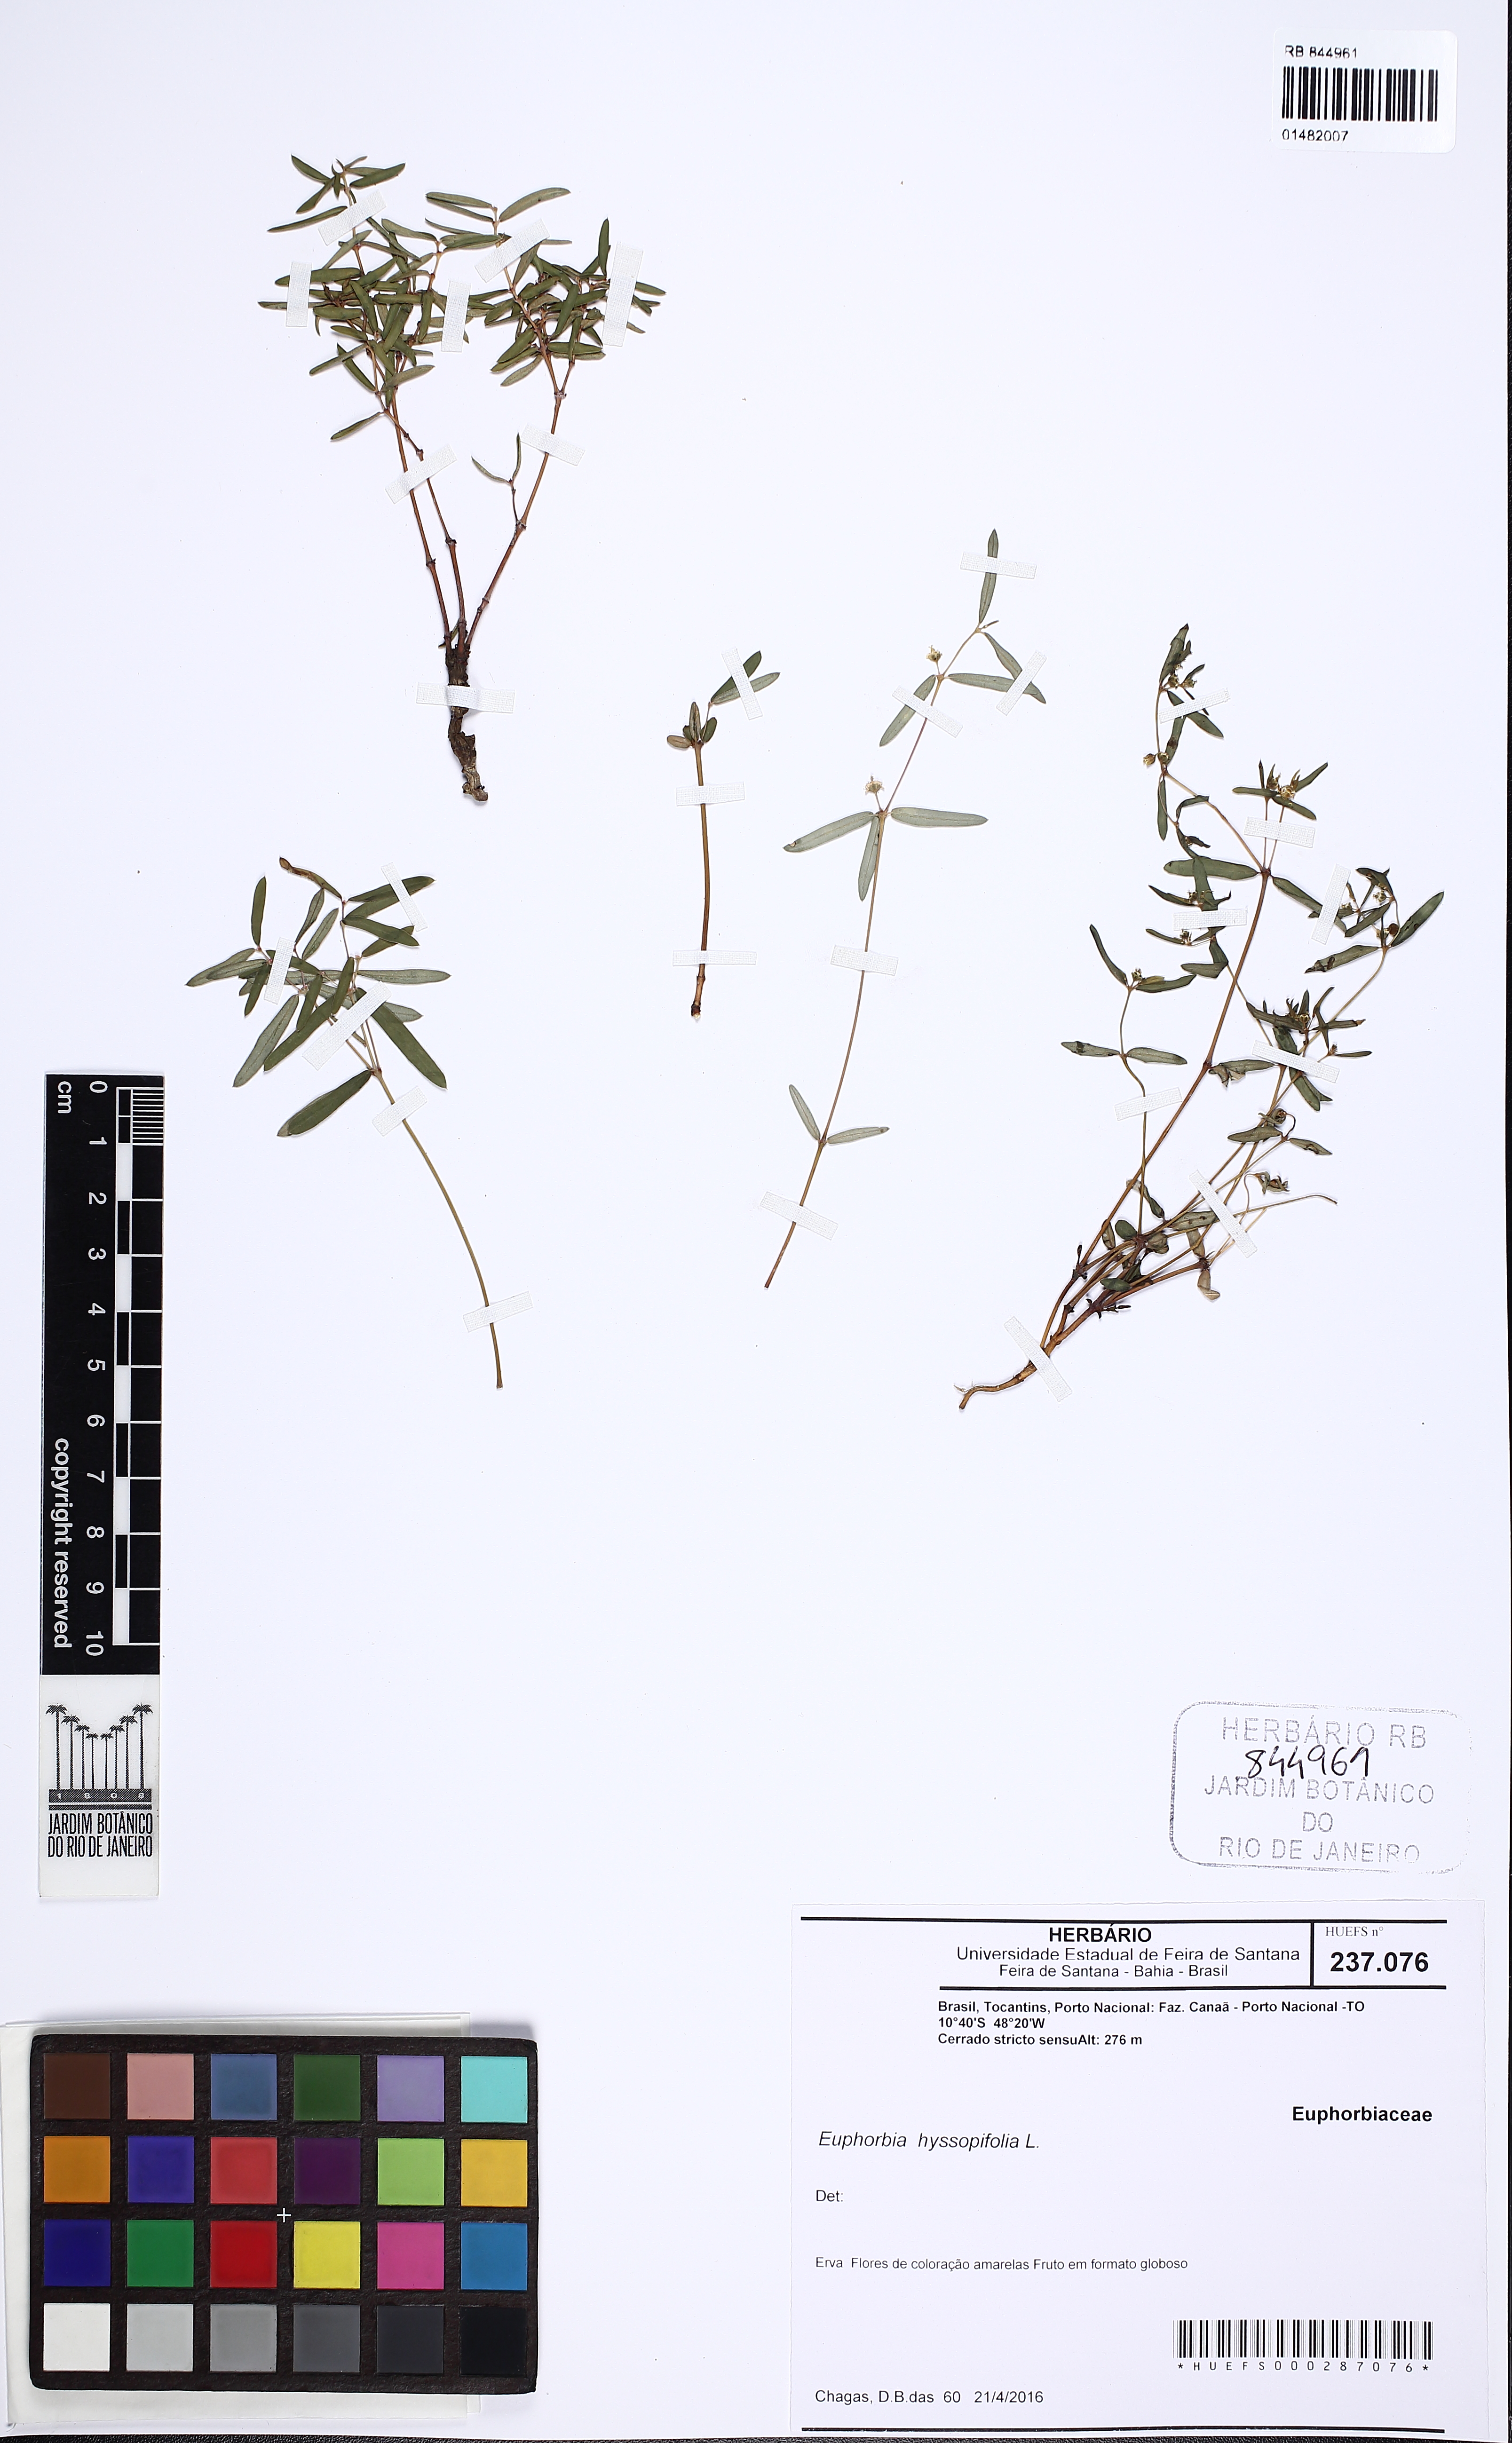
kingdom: Plantae
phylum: Tracheophyta
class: Magnoliopsida
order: Malpighiales
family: Euphorbiaceae
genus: Euphorbia
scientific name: Euphorbia hyssopifolia
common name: Hyssopleaf sandmat
